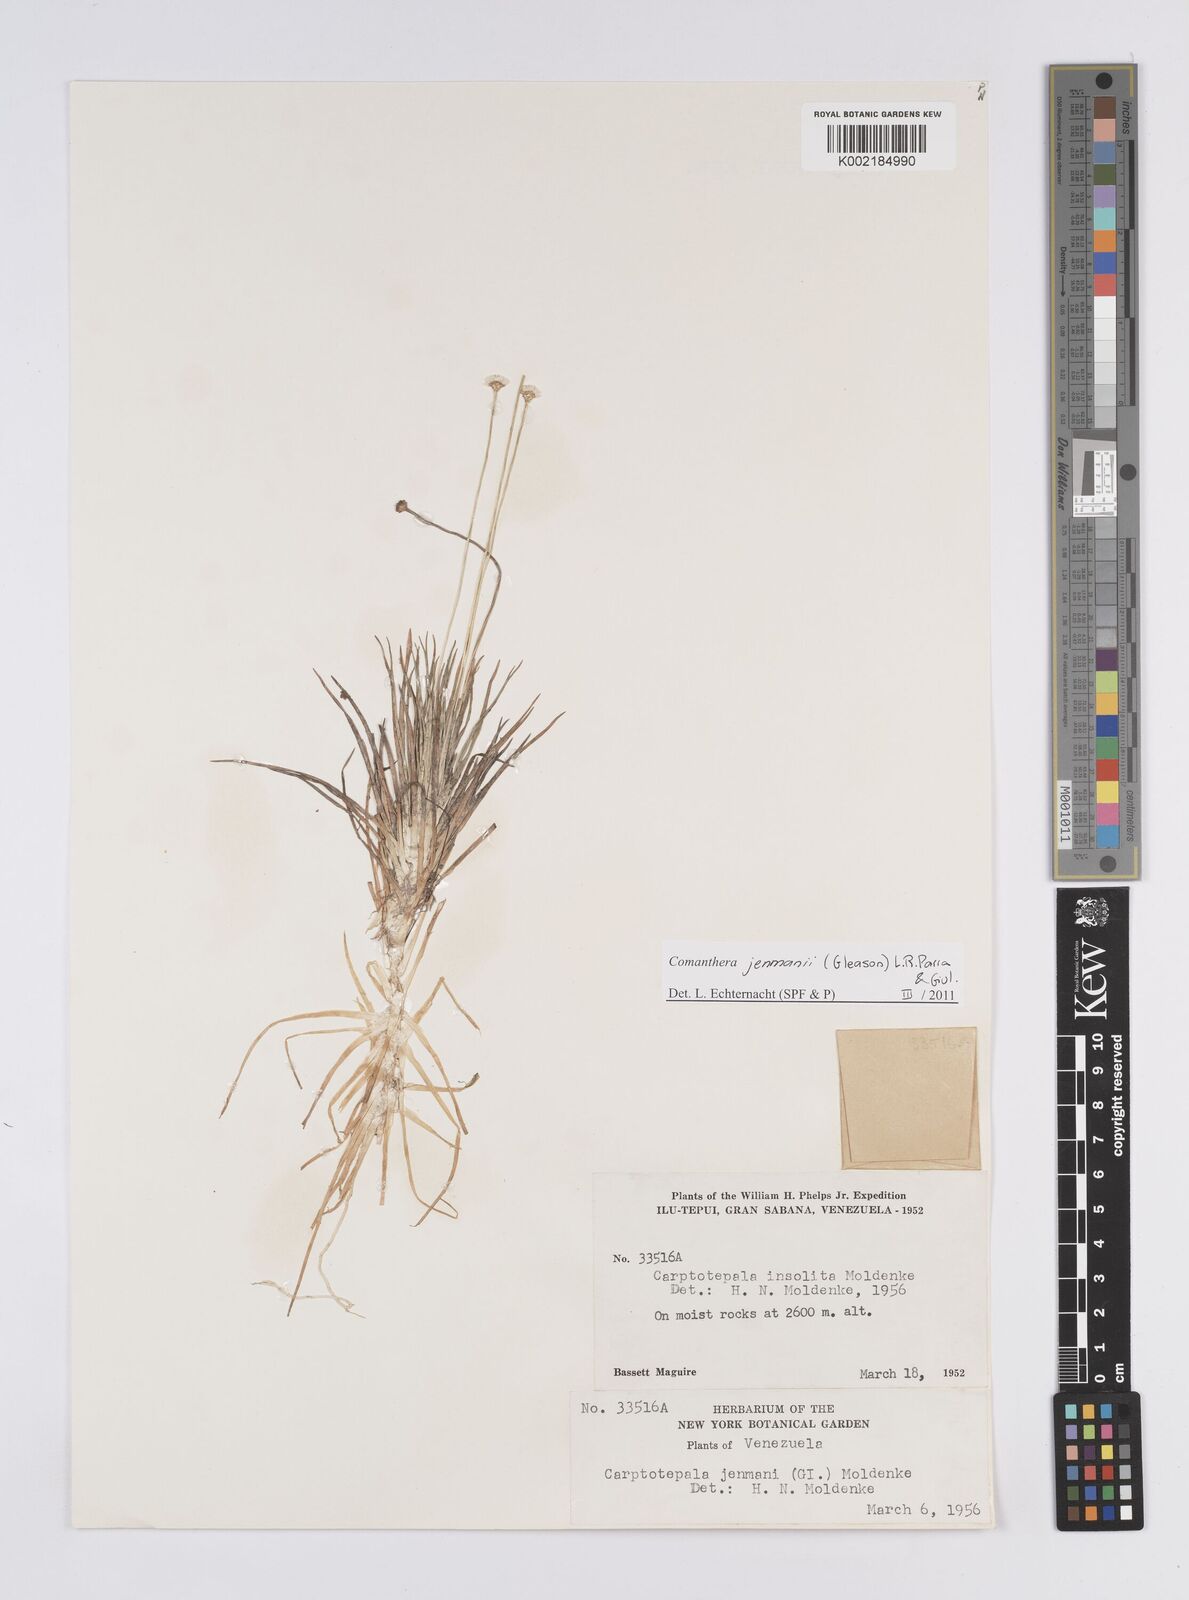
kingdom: Plantae
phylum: Tracheophyta
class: Liliopsida
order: Poales
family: Eriocaulaceae
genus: Comanthera
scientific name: Comanthera jenmanii
